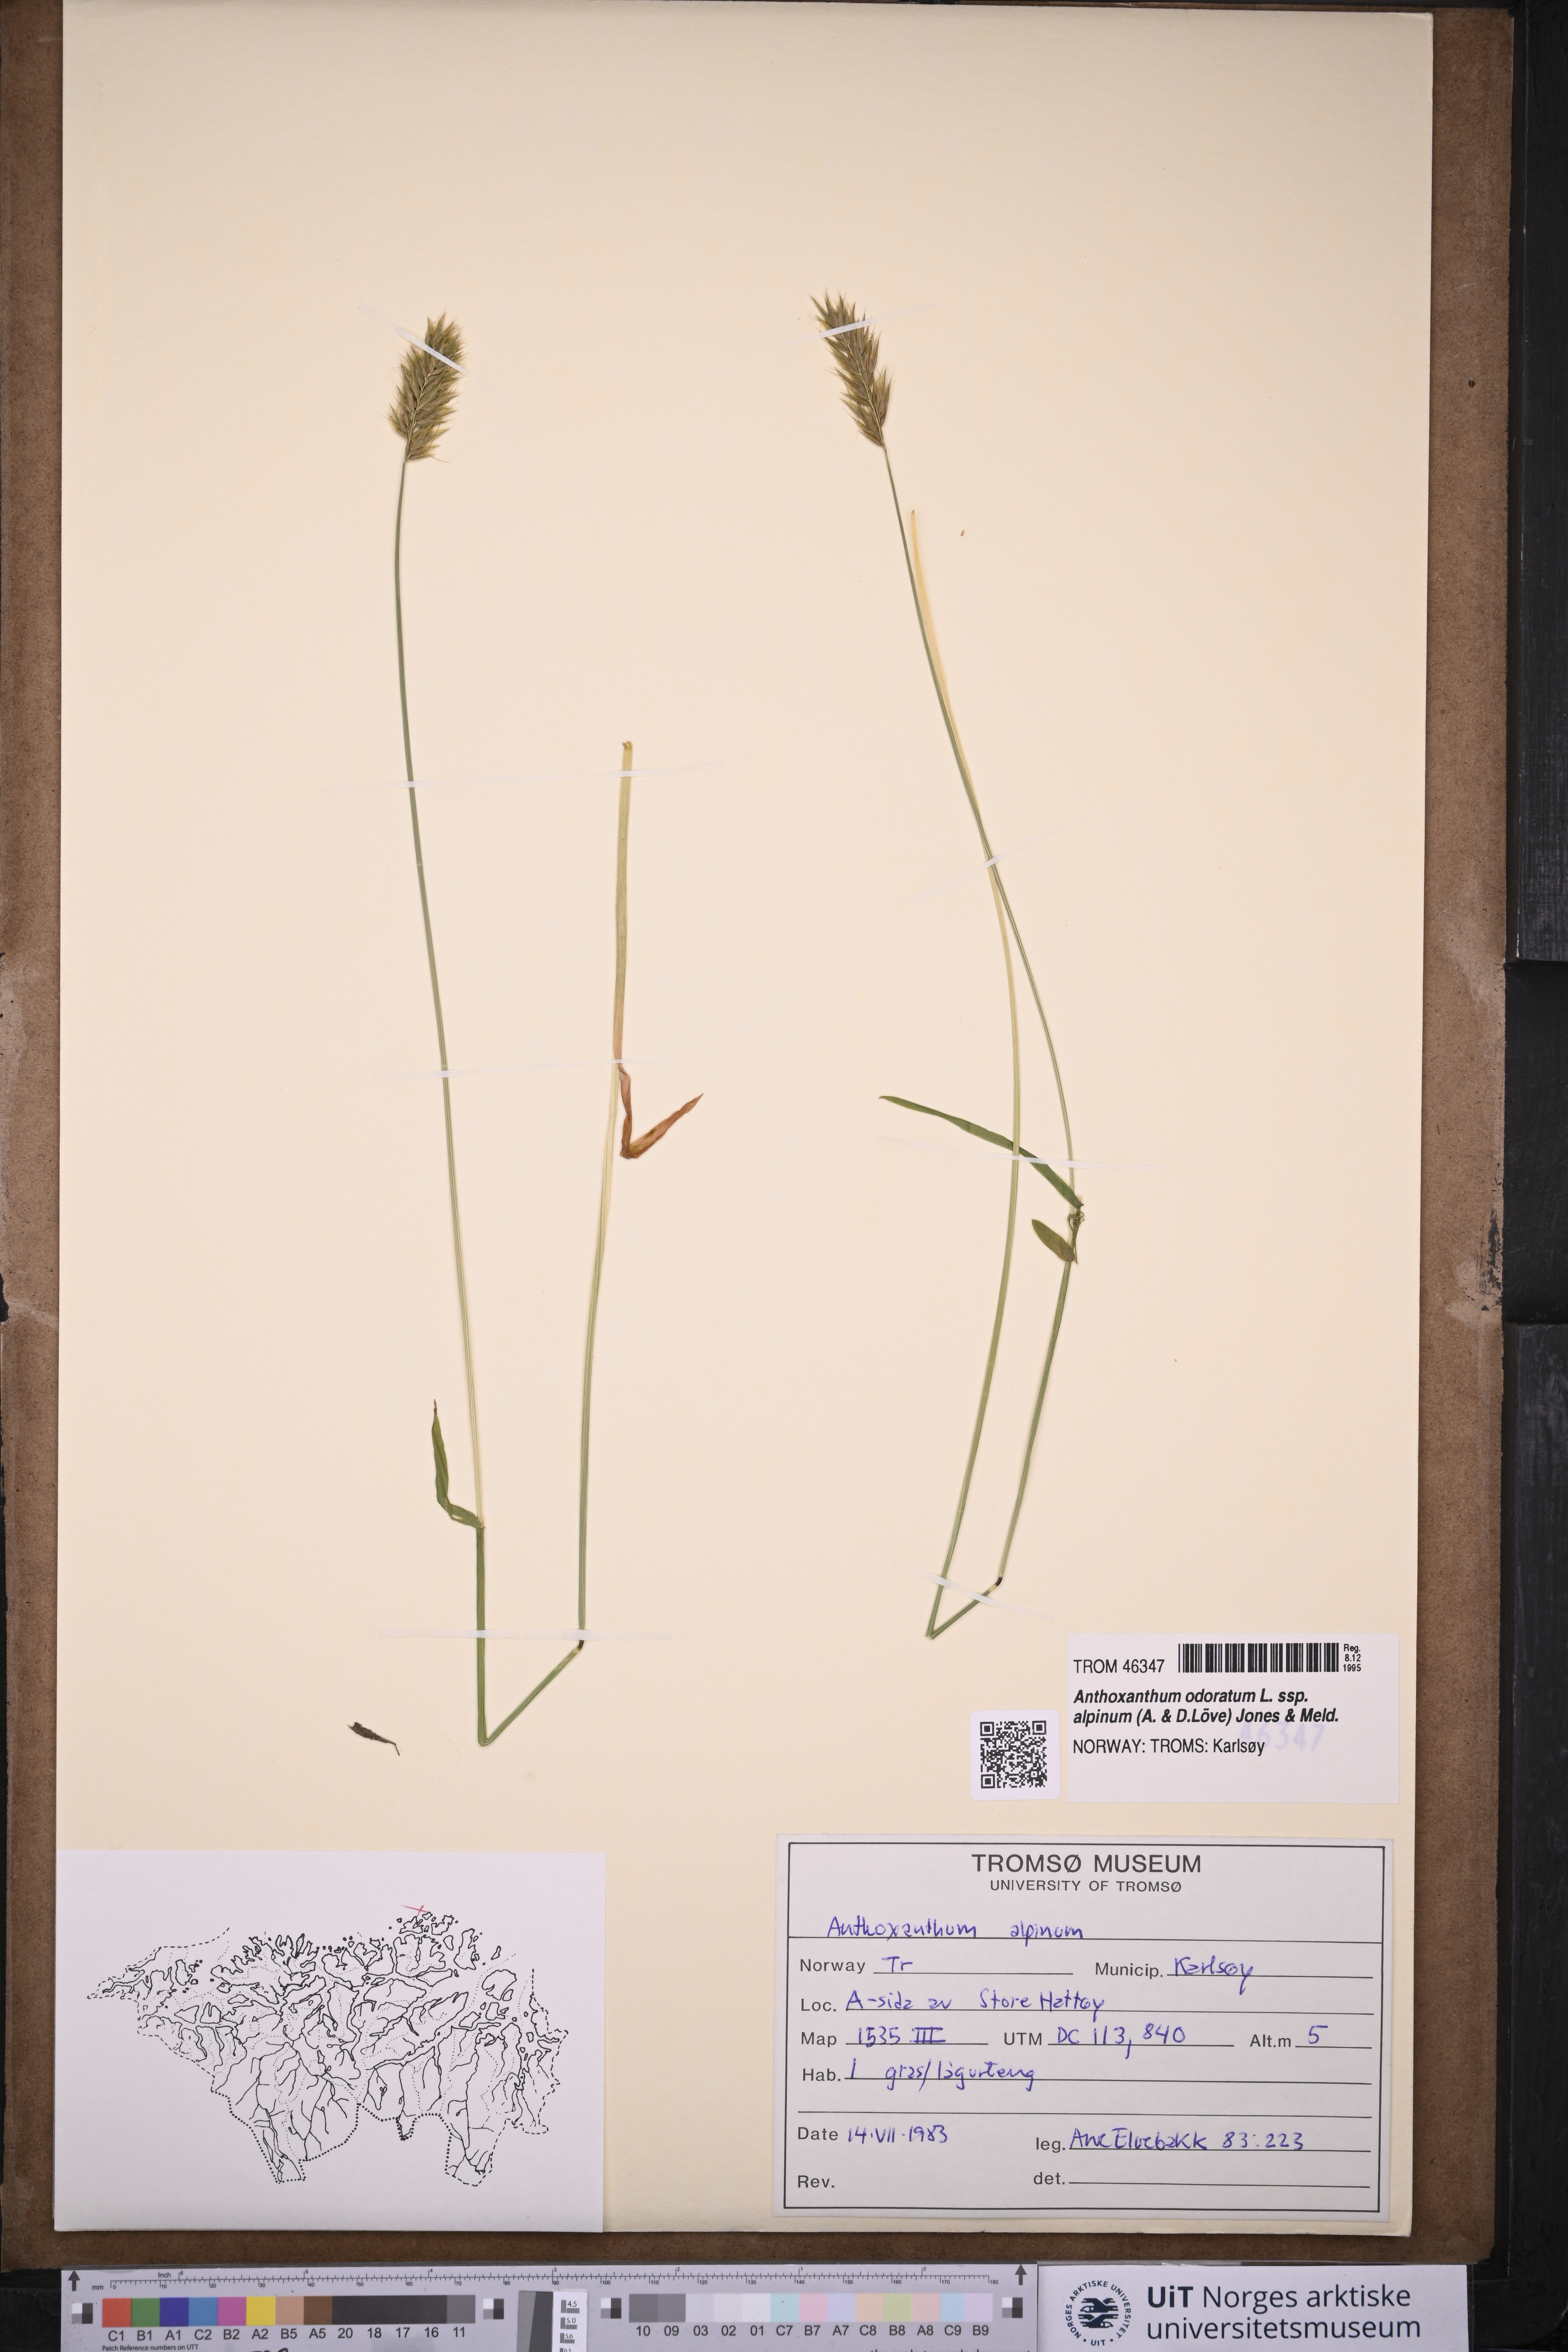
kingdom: Plantae
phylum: Tracheophyta
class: Liliopsida
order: Poales
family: Poaceae
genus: Anthoxanthum
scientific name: Anthoxanthum nipponicum
